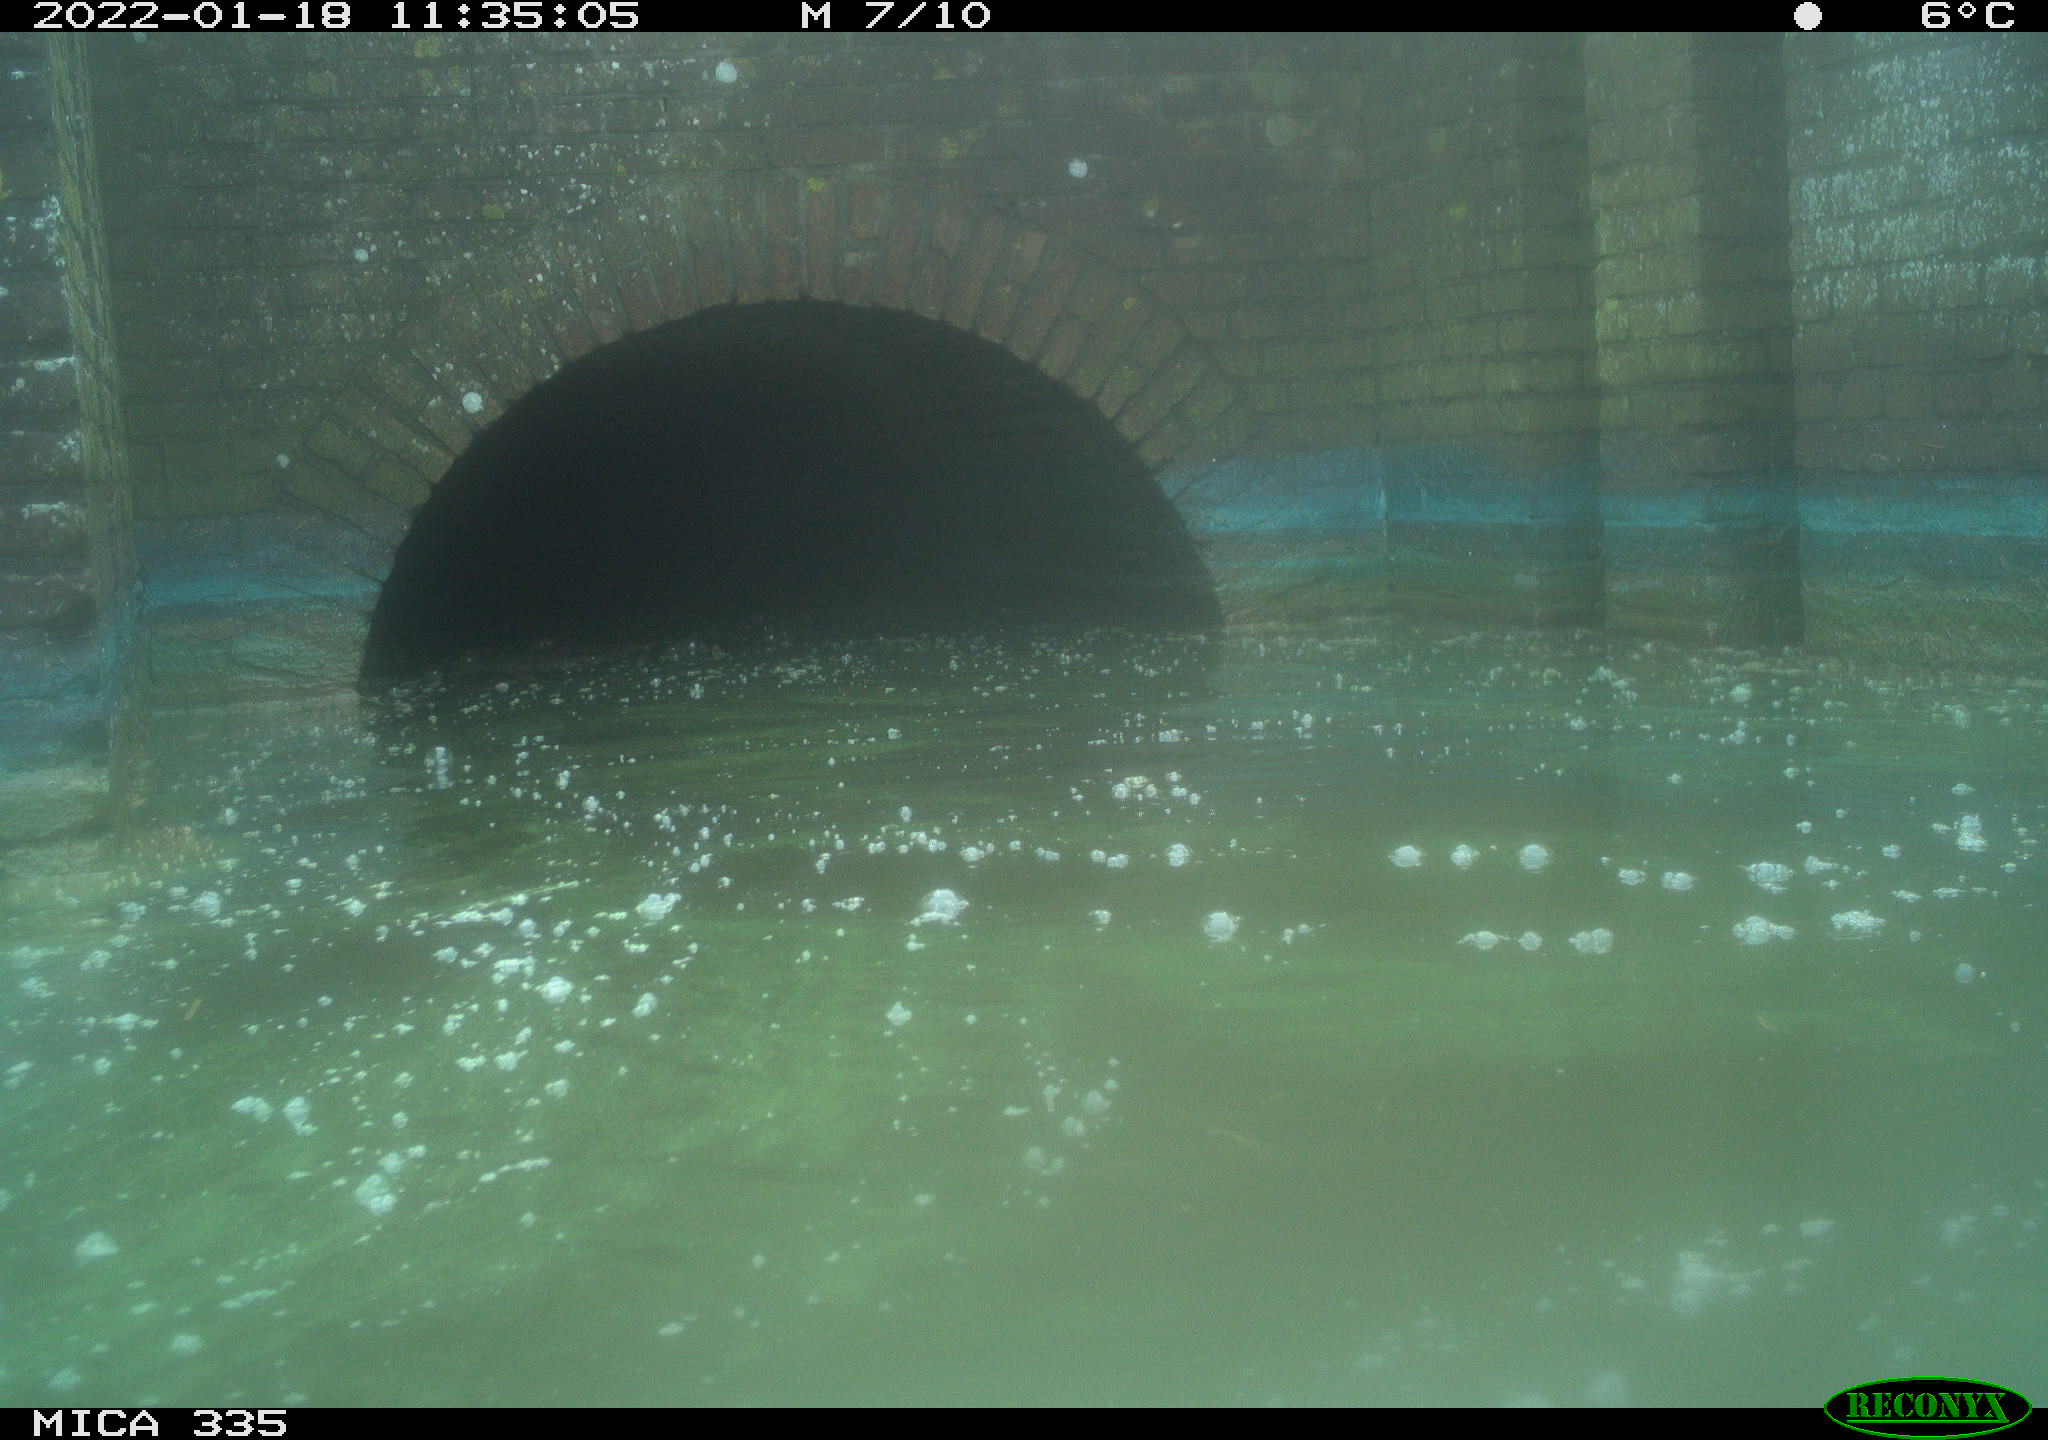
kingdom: Animalia
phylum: Chordata
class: Aves
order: Suliformes
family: Phalacrocoracidae
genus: Phalacrocorax
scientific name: Phalacrocorax carbo
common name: Great cormorant
